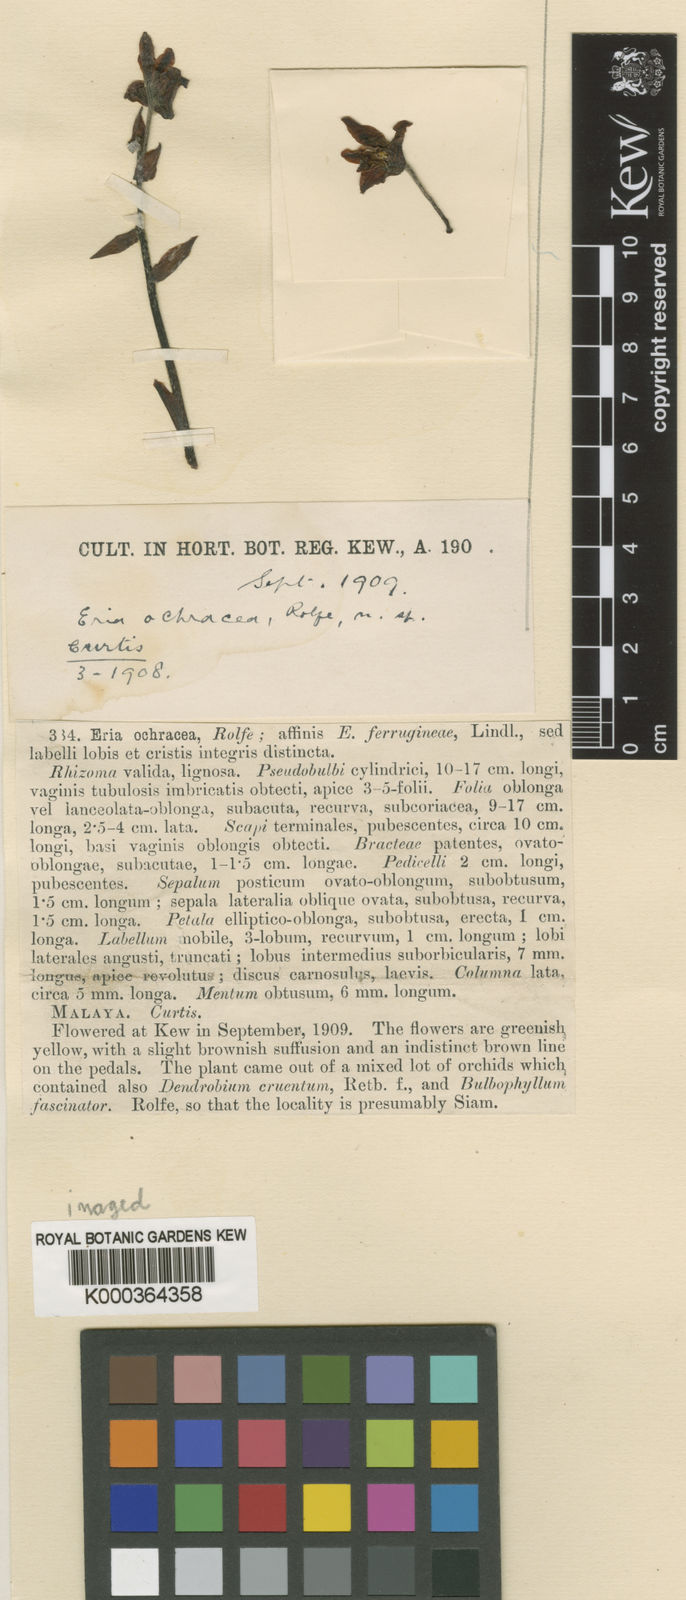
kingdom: Plantae
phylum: Tracheophyta
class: Liliopsida
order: Asparagales
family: Orchidaceae
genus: Pinalia
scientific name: Pinalia ochracea
